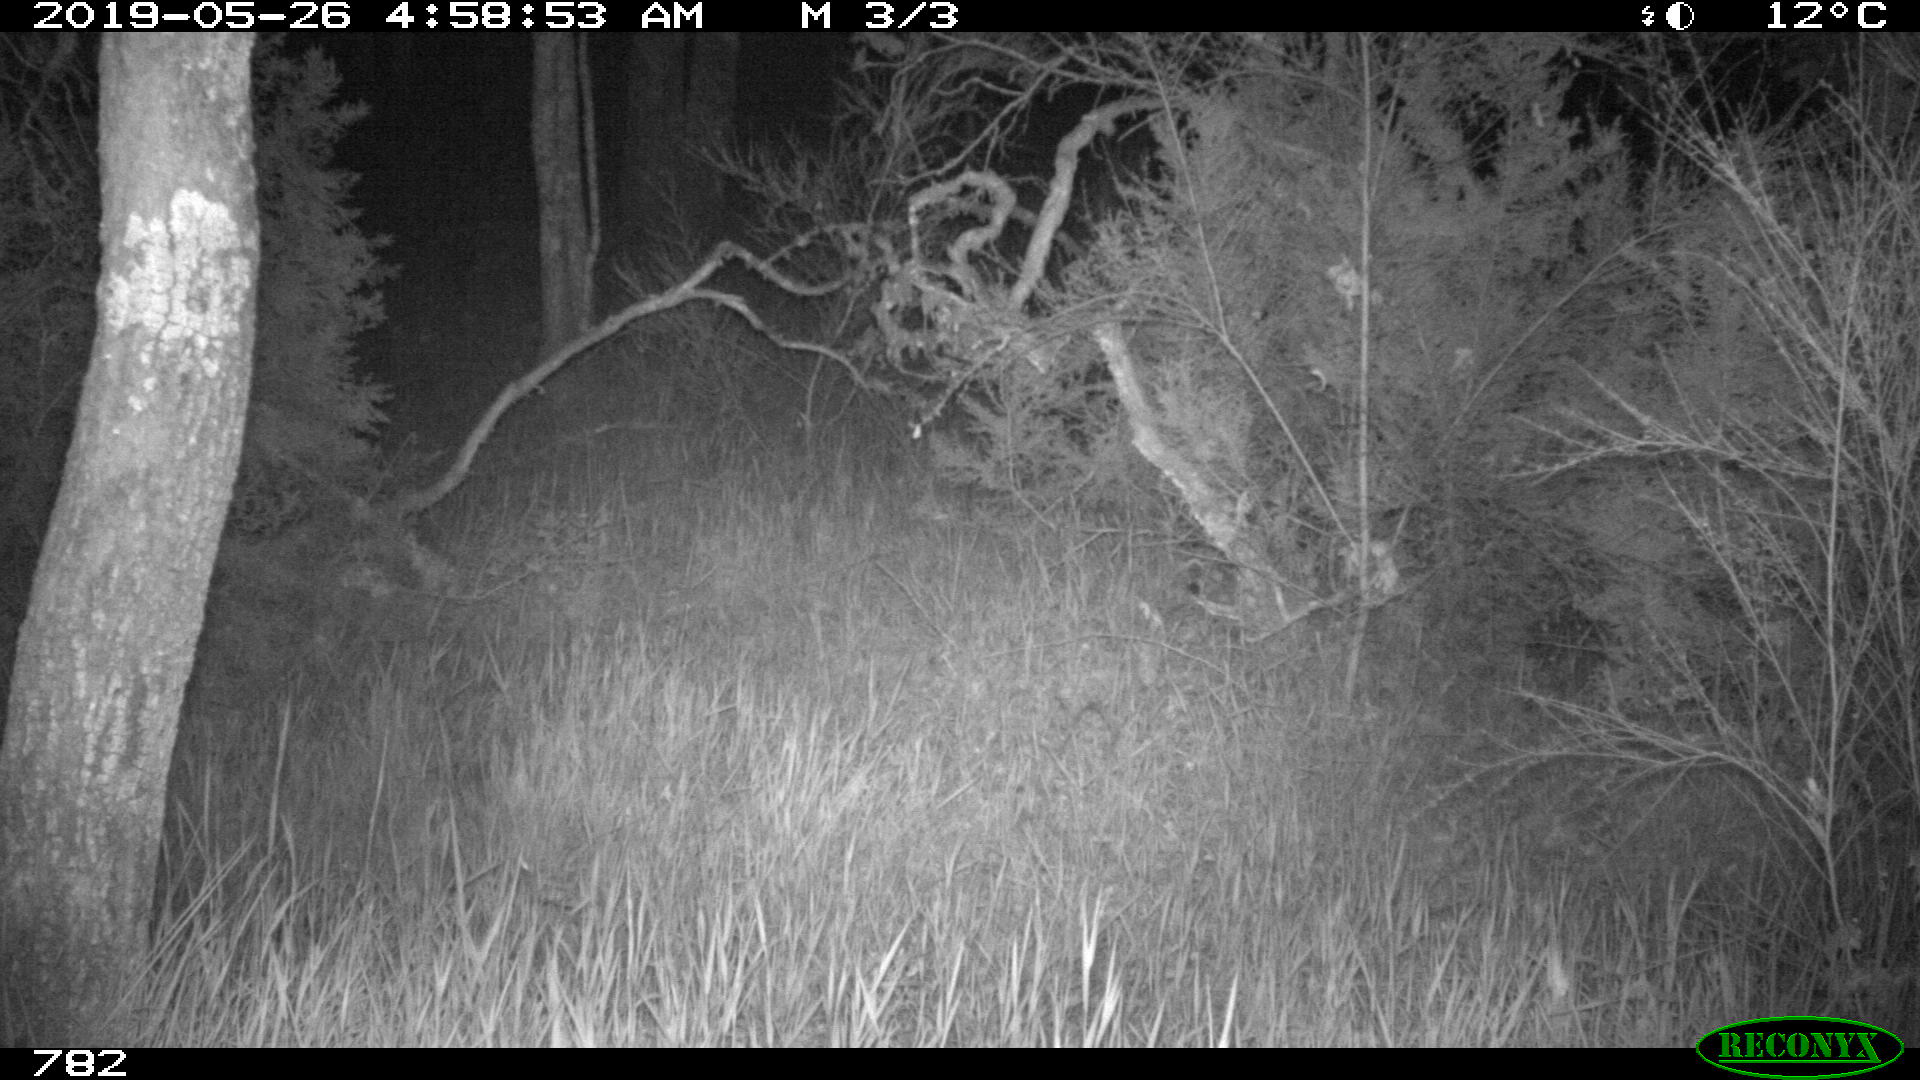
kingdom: Animalia
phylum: Chordata
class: Mammalia
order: Artiodactyla
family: Suidae
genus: Sus
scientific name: Sus scrofa
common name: Wild boar
